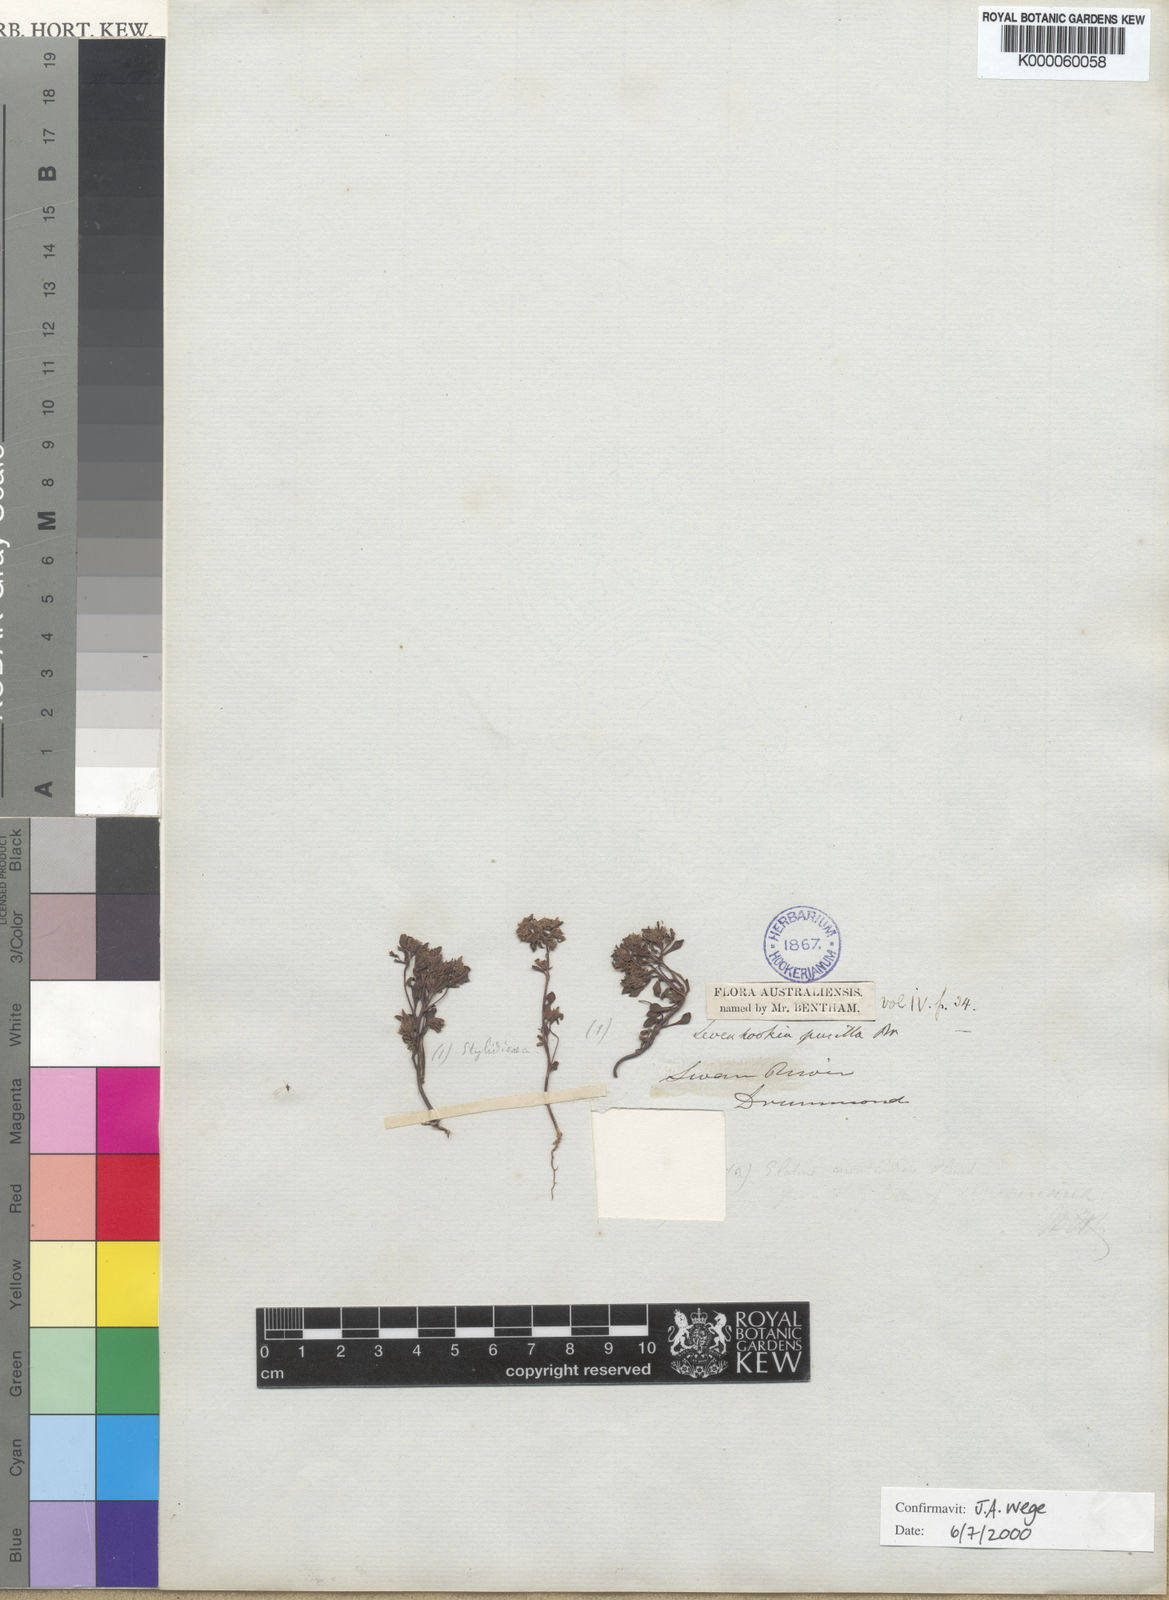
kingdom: Plantae
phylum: Tracheophyta
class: Magnoliopsida
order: Asterales
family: Stylidiaceae
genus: Levenhookia
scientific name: Levenhookia pusilla
